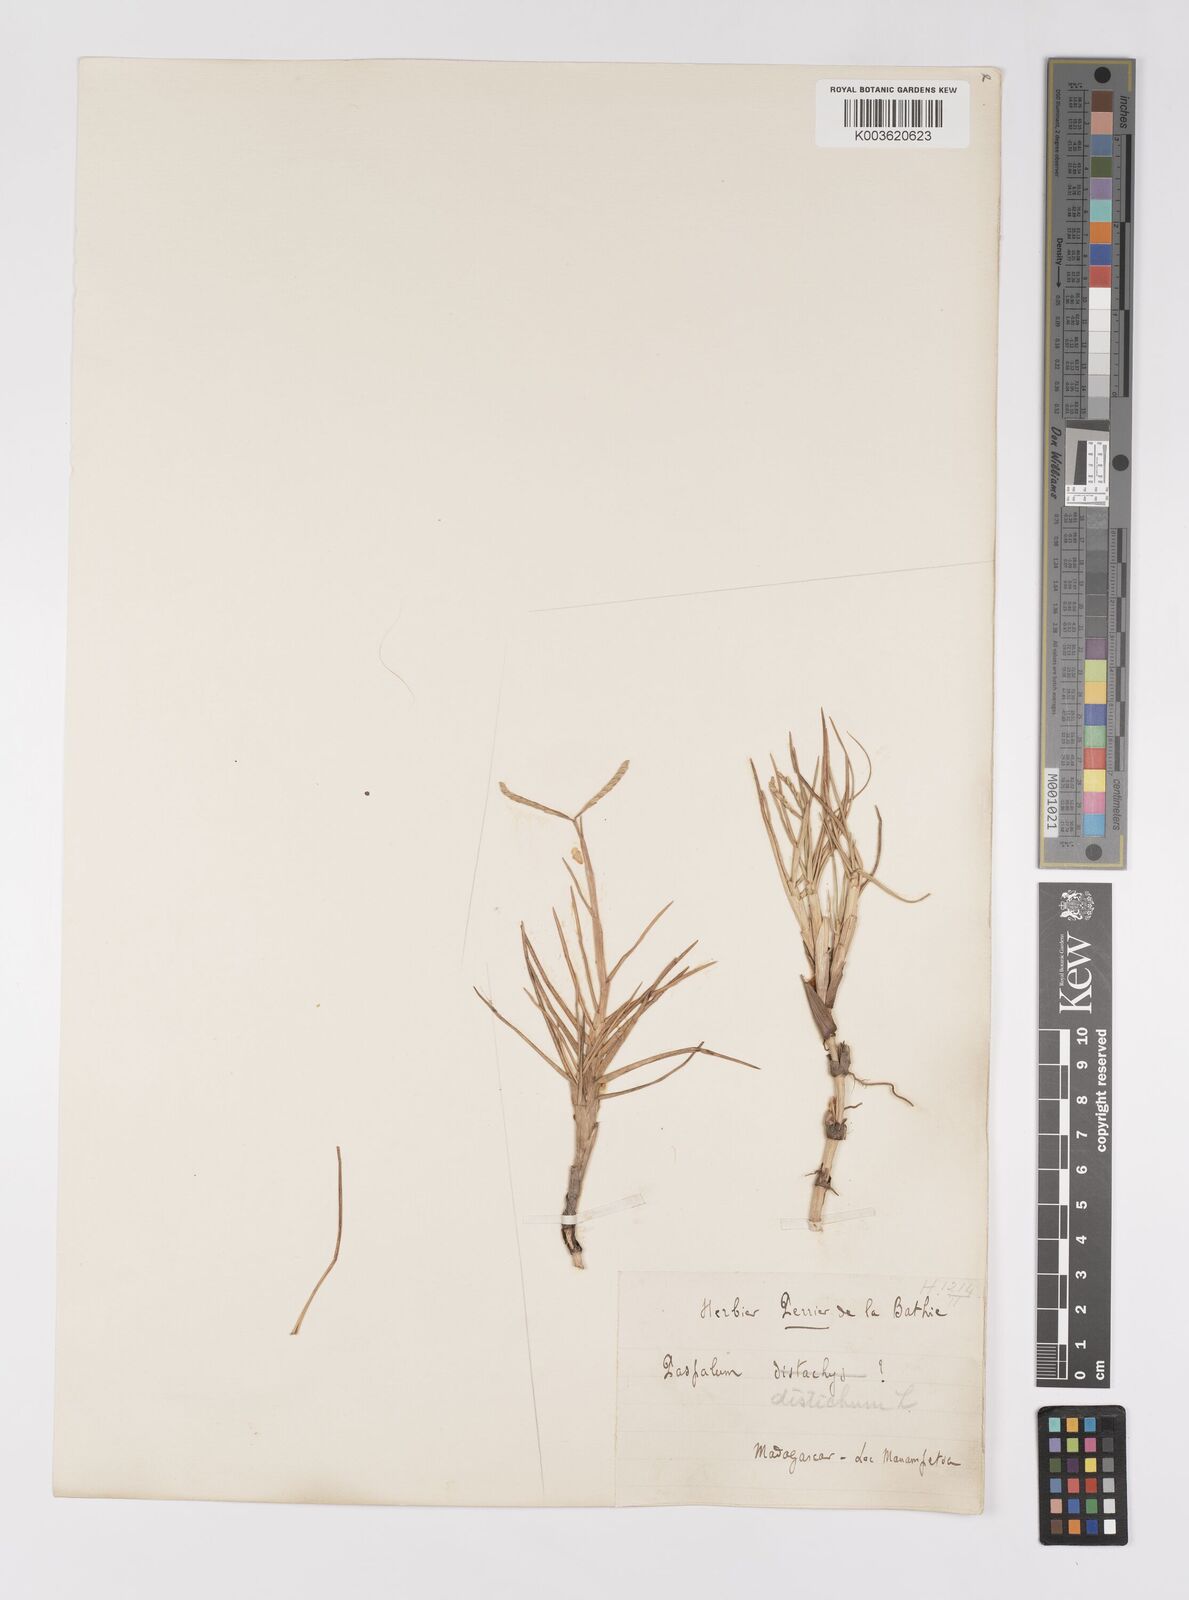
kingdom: Plantae
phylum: Tracheophyta
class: Liliopsida
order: Poales
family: Poaceae
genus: Paspalum
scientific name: Paspalum vaginatum
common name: Seashore paspalum
